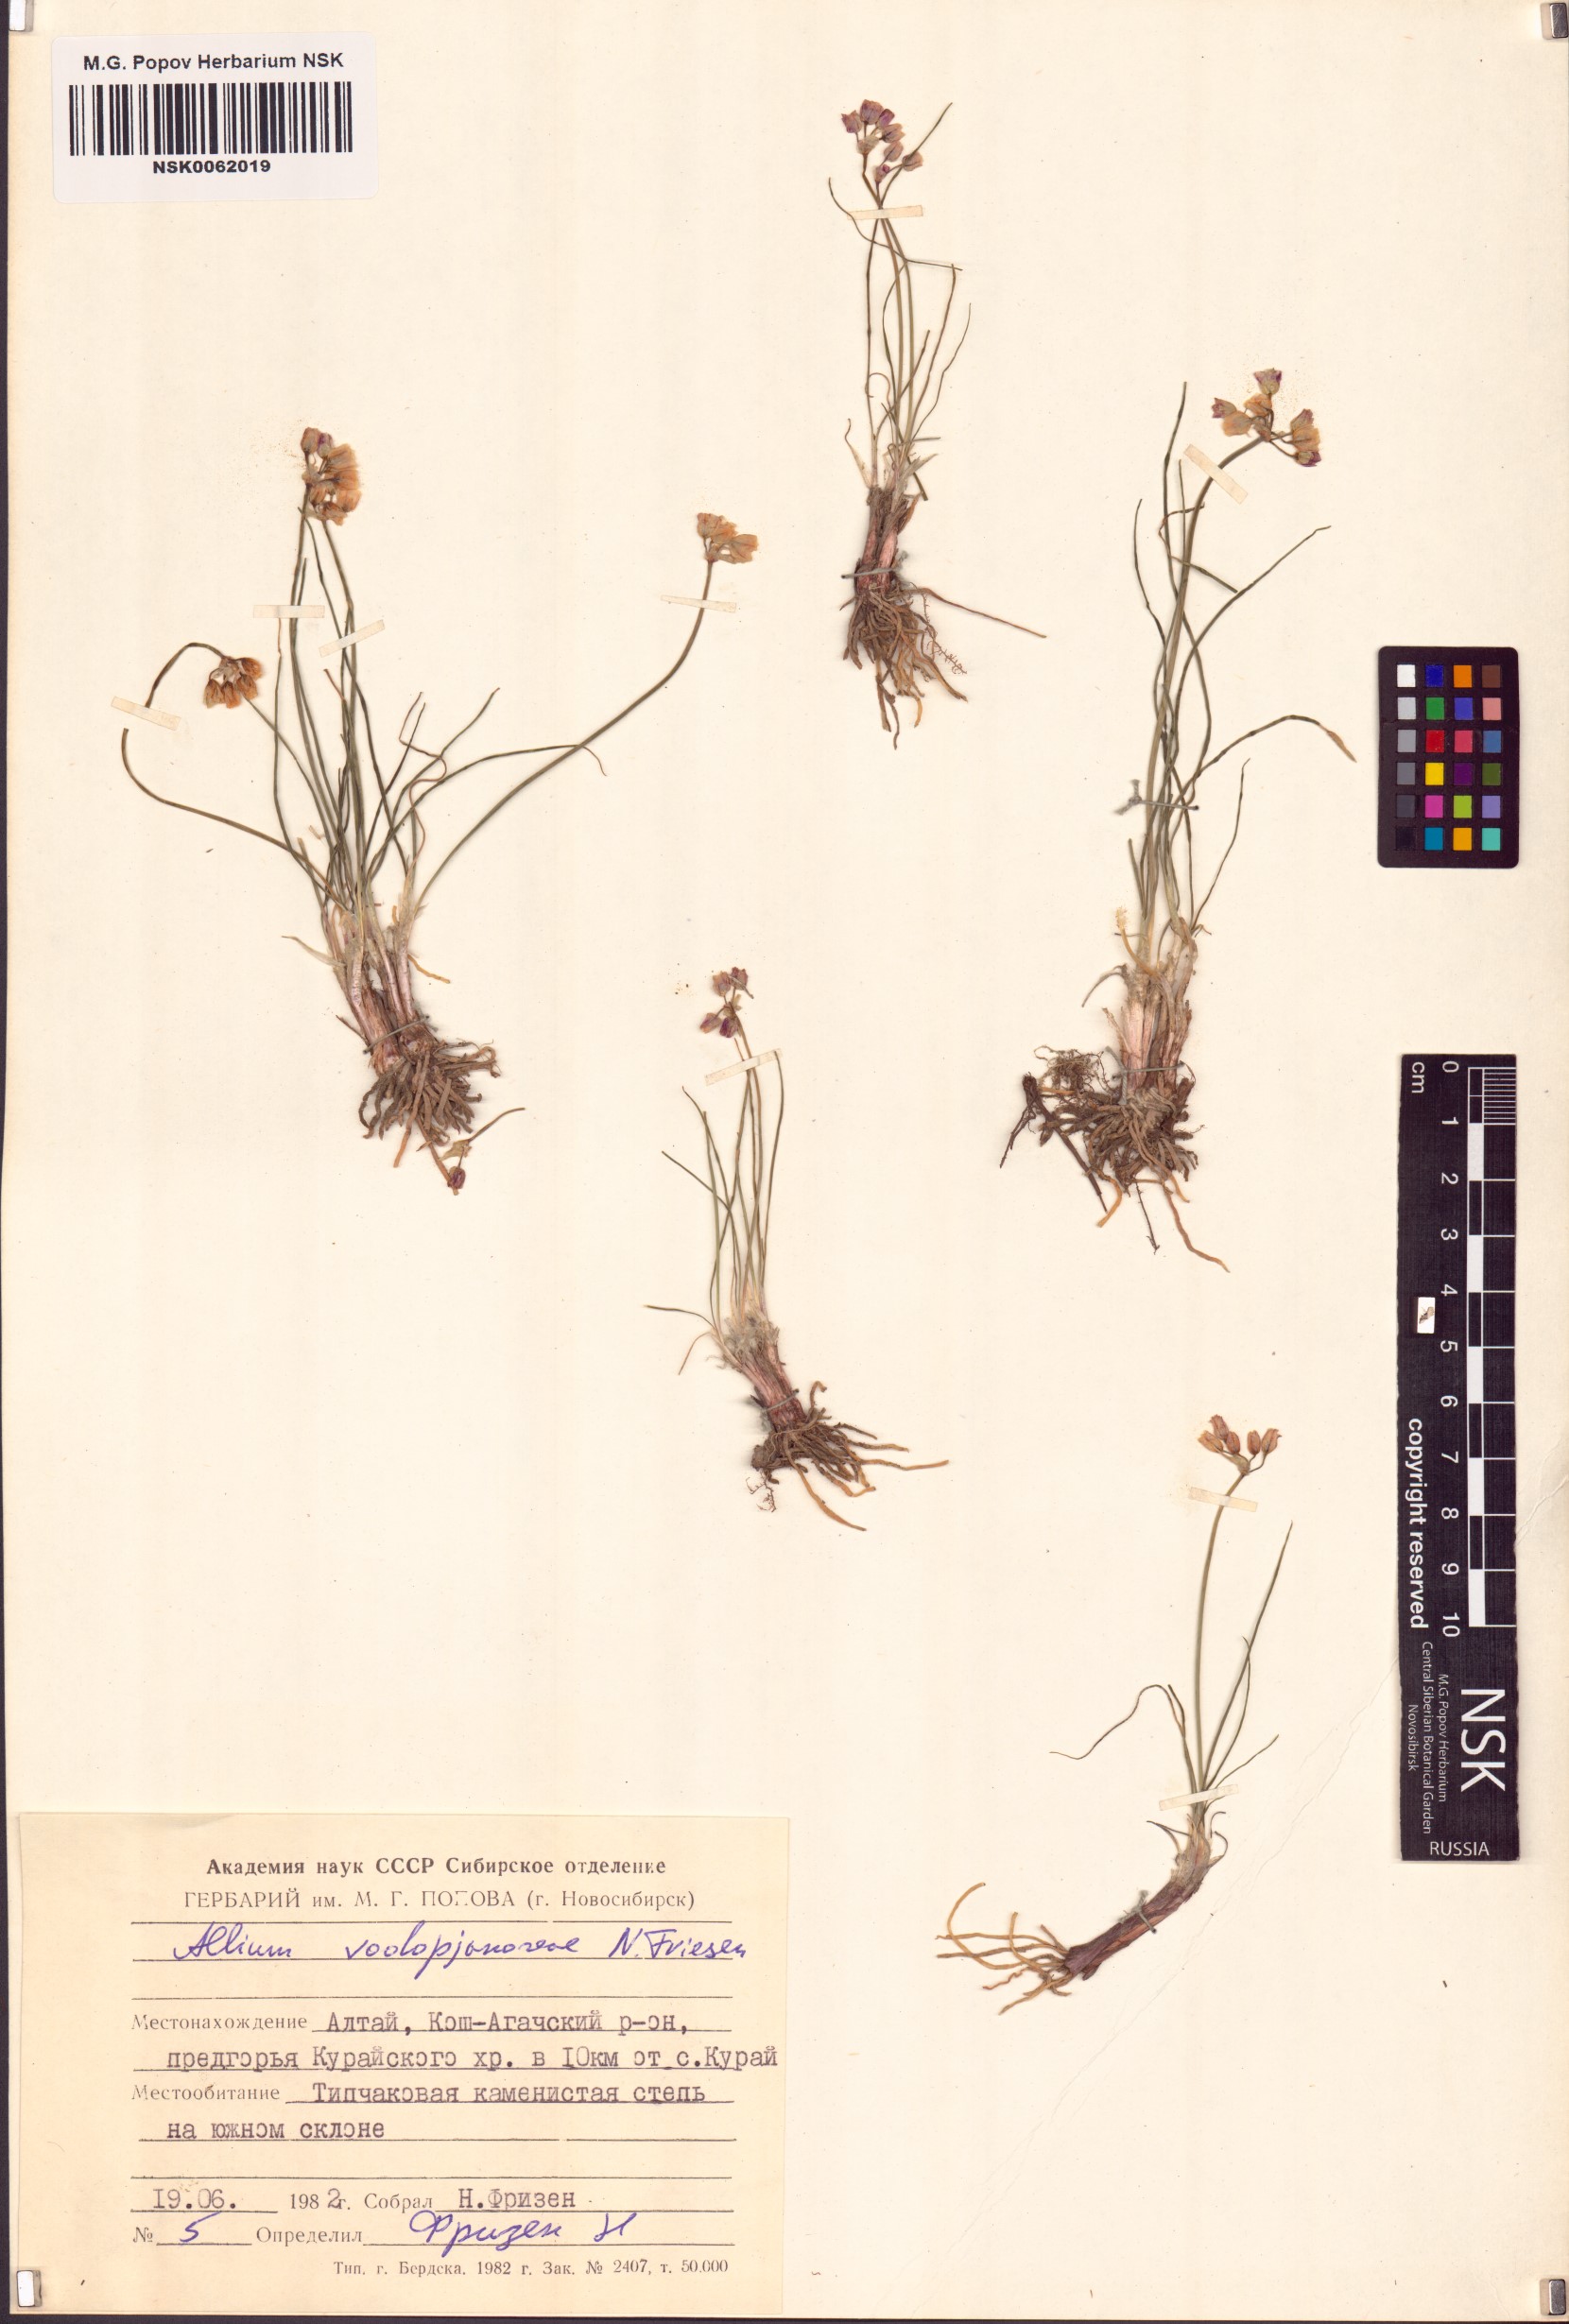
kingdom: Plantae
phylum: Tracheophyta
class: Liliopsida
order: Asparagales
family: Amaryllidaceae
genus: Allium
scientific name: Allium vodopjanovae
